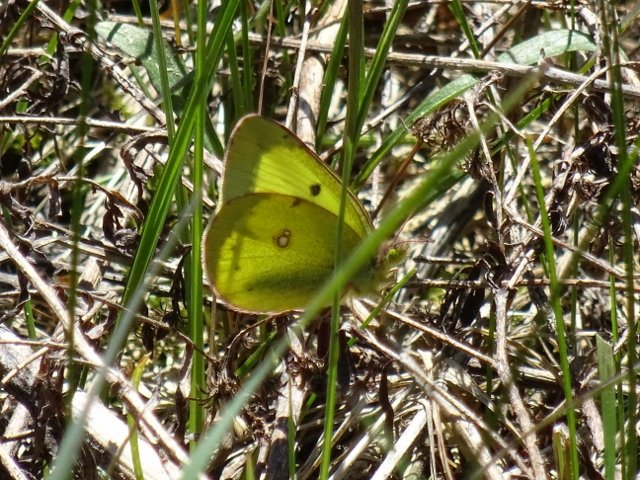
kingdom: Animalia
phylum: Arthropoda
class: Insecta
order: Lepidoptera
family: Pieridae
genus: Colias
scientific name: Colias philodice
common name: Clouded Sulphur
